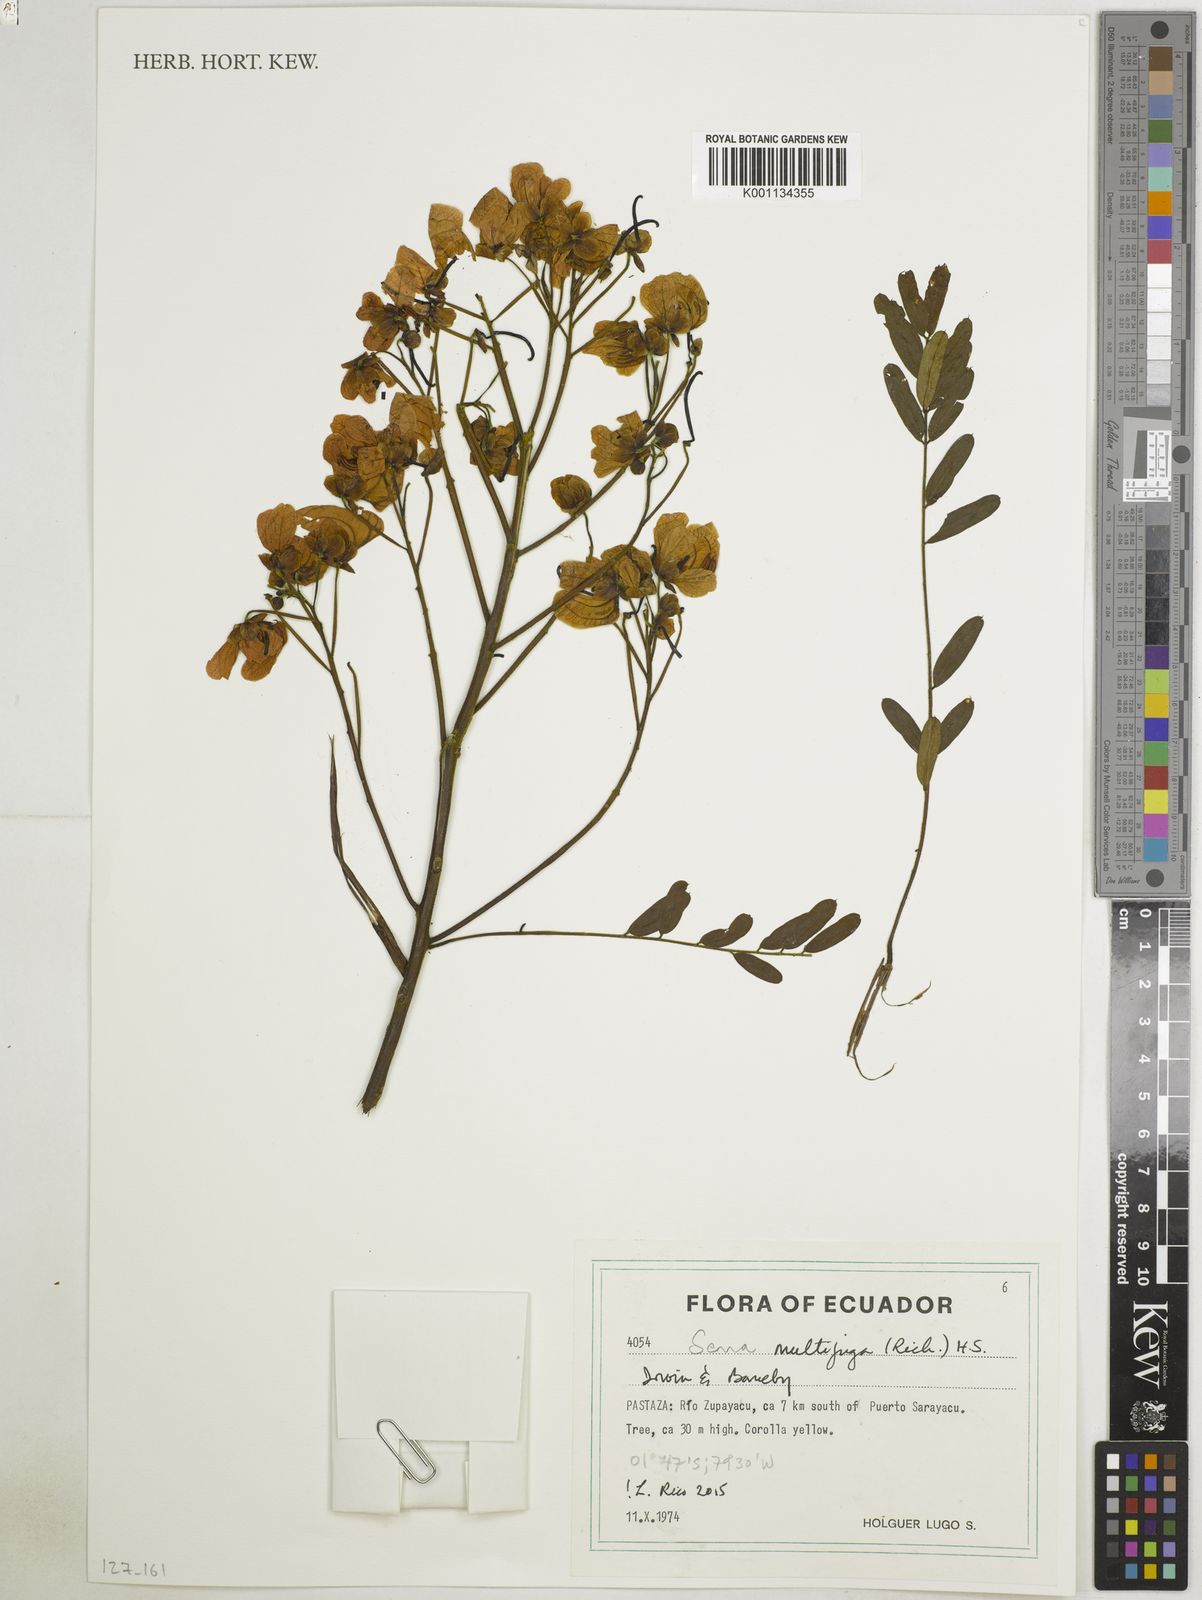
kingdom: Plantae
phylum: Tracheophyta
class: Magnoliopsida
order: Fabales
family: Fabaceae
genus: Senna
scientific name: Senna multijuga
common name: False sicklepod
